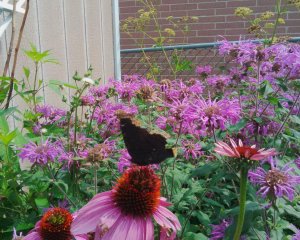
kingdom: Animalia
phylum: Arthropoda
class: Insecta
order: Lepidoptera
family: Nymphalidae
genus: Nymphalis
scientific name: Nymphalis antiopa
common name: Mourning Cloak
